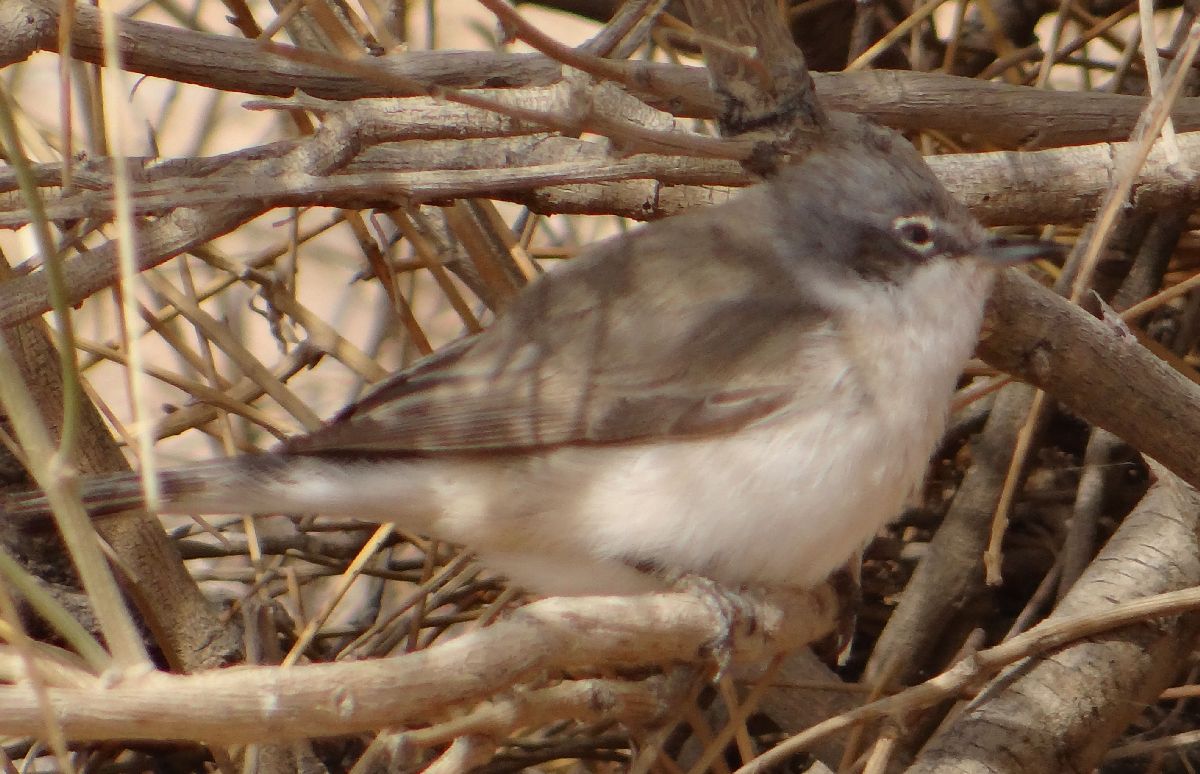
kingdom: Animalia
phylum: Chordata
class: Aves
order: Passeriformes
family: Sylviidae
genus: Sylvia
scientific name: Sylvia curruca
